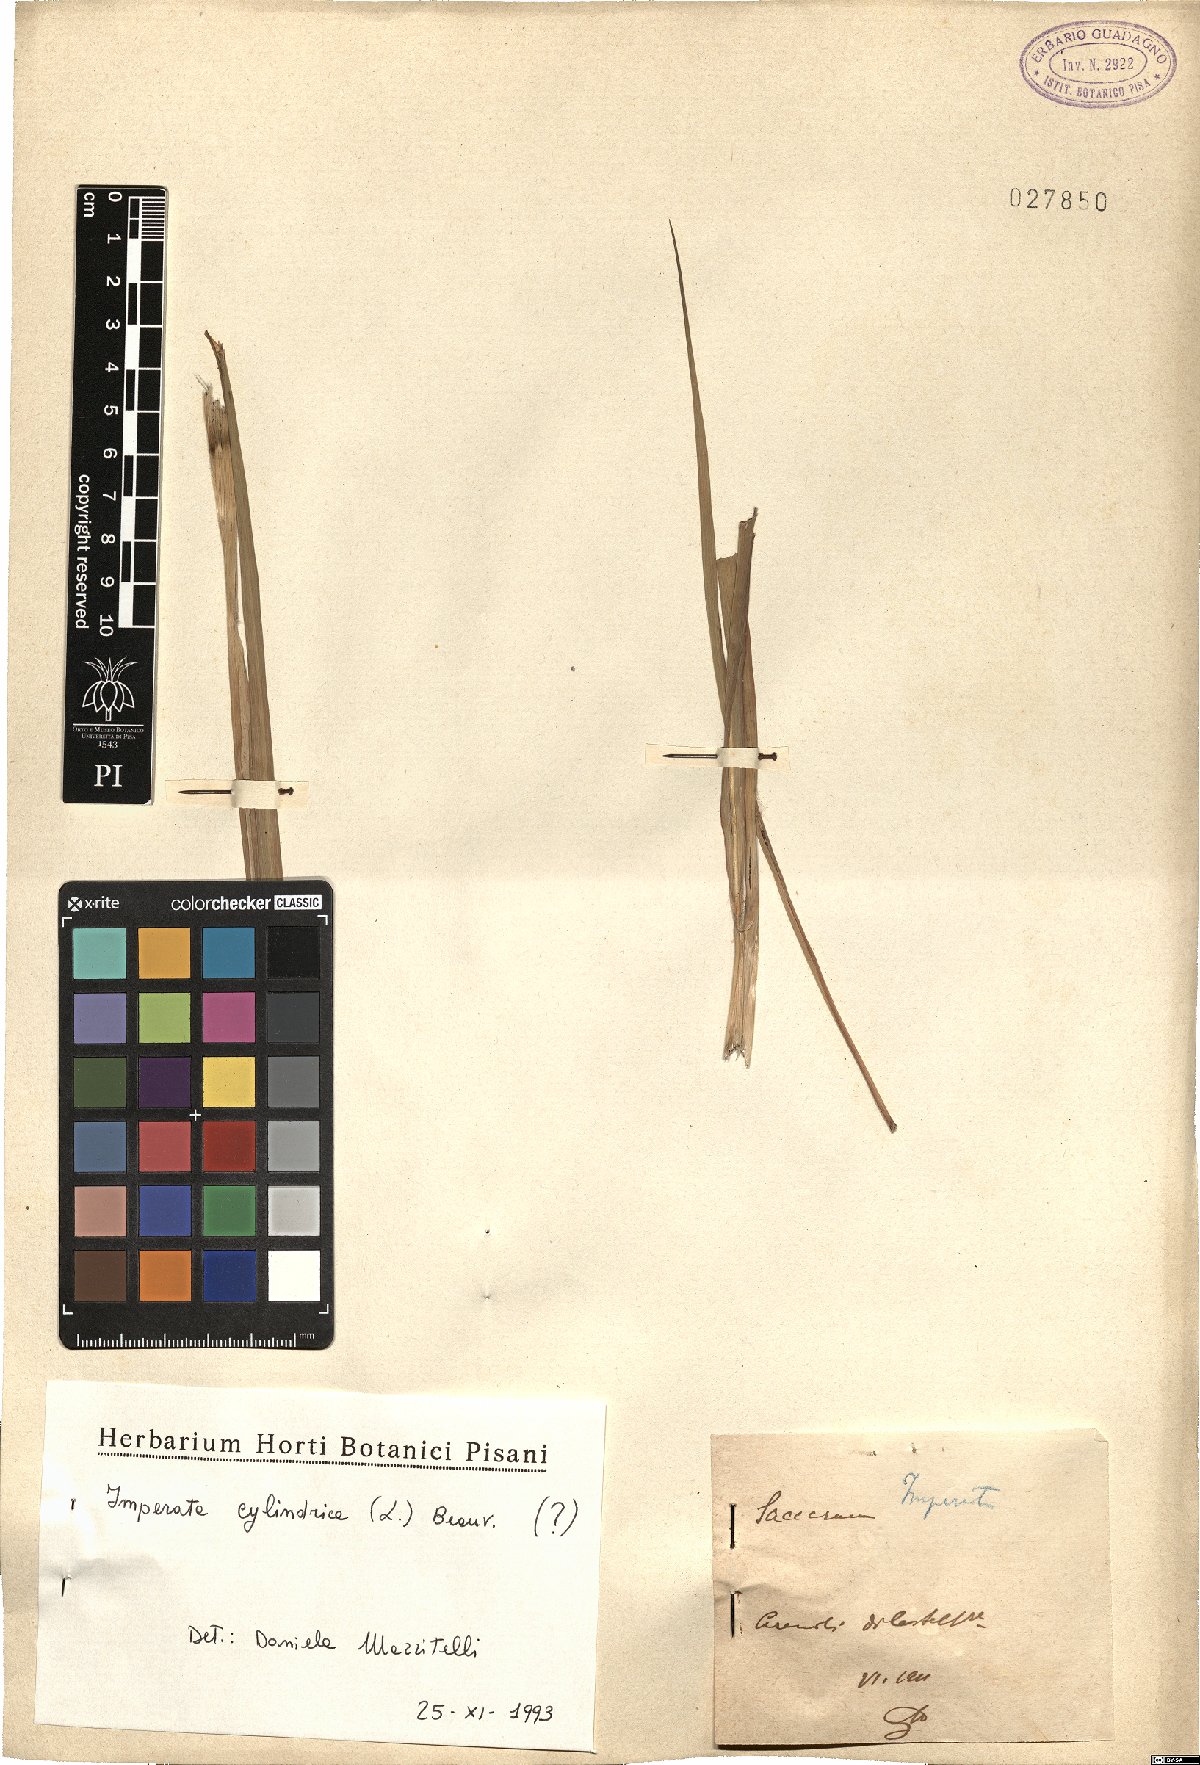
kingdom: Plantae
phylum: Tracheophyta
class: Liliopsida
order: Poales
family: Poaceae
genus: Imperata
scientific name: Imperata cylindrica
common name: Cogongrass
